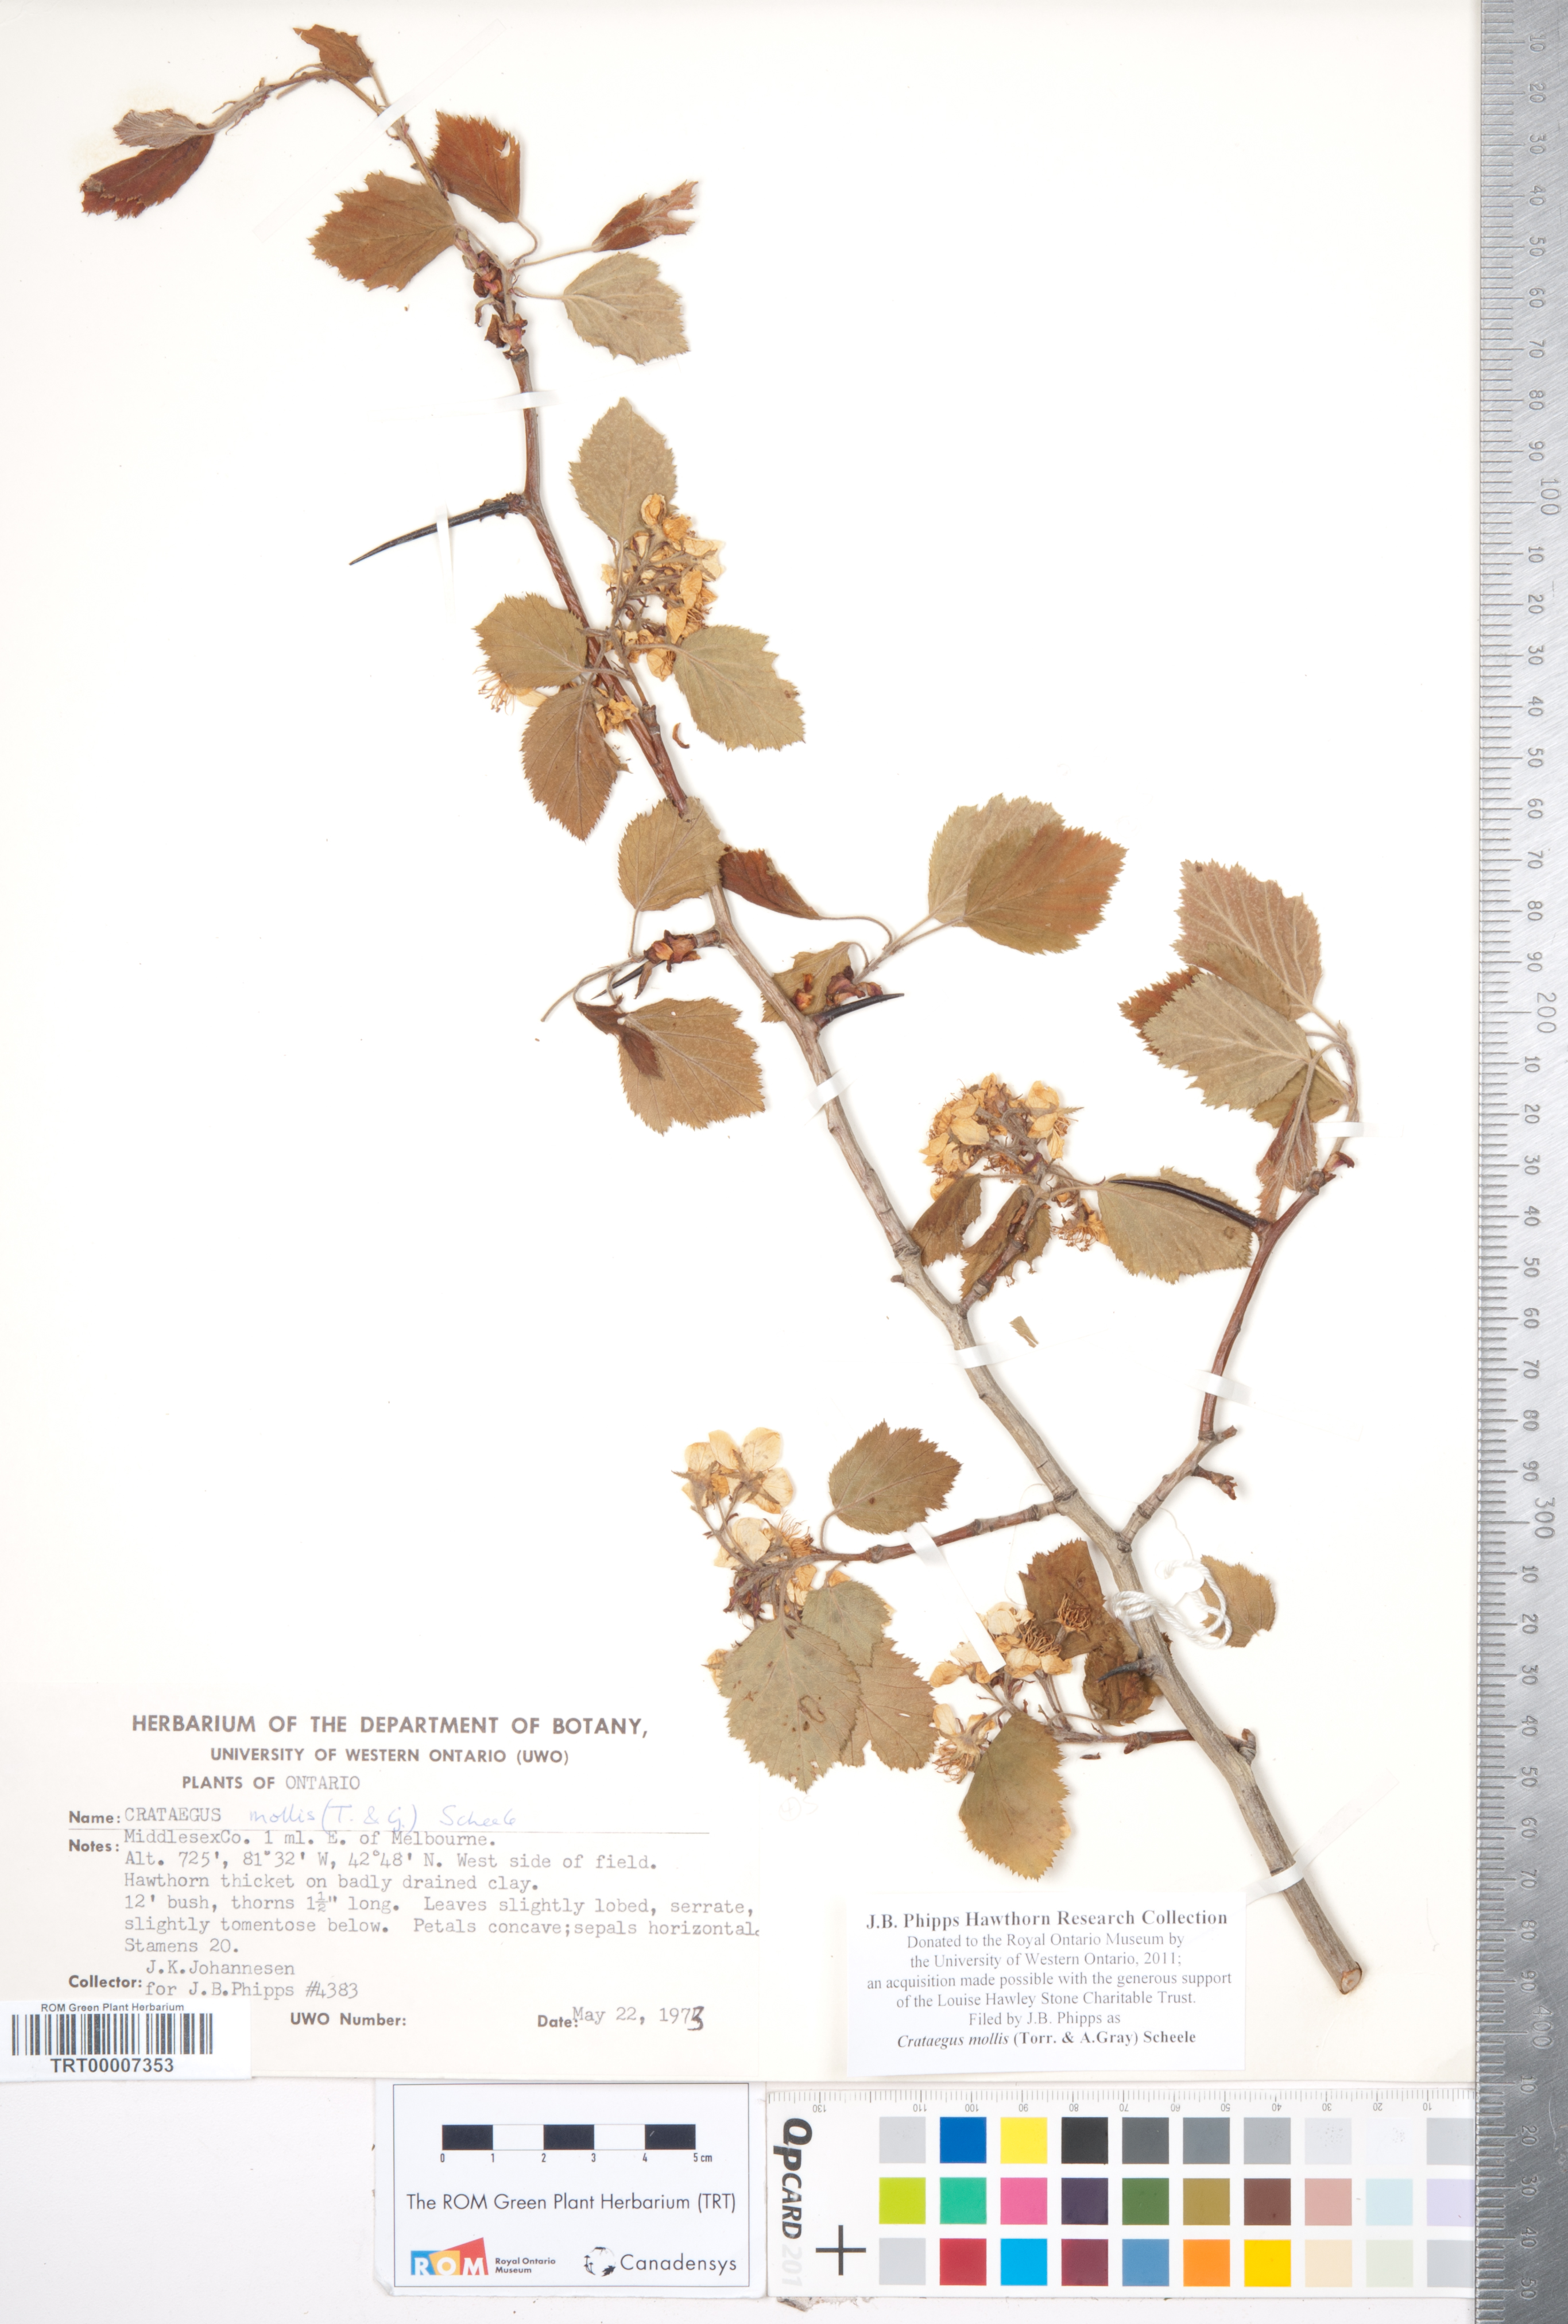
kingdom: Plantae
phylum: Tracheophyta
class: Magnoliopsida
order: Rosales
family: Rosaceae
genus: Crataegus
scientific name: Crataegus mollis
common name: Downy hawthorn
